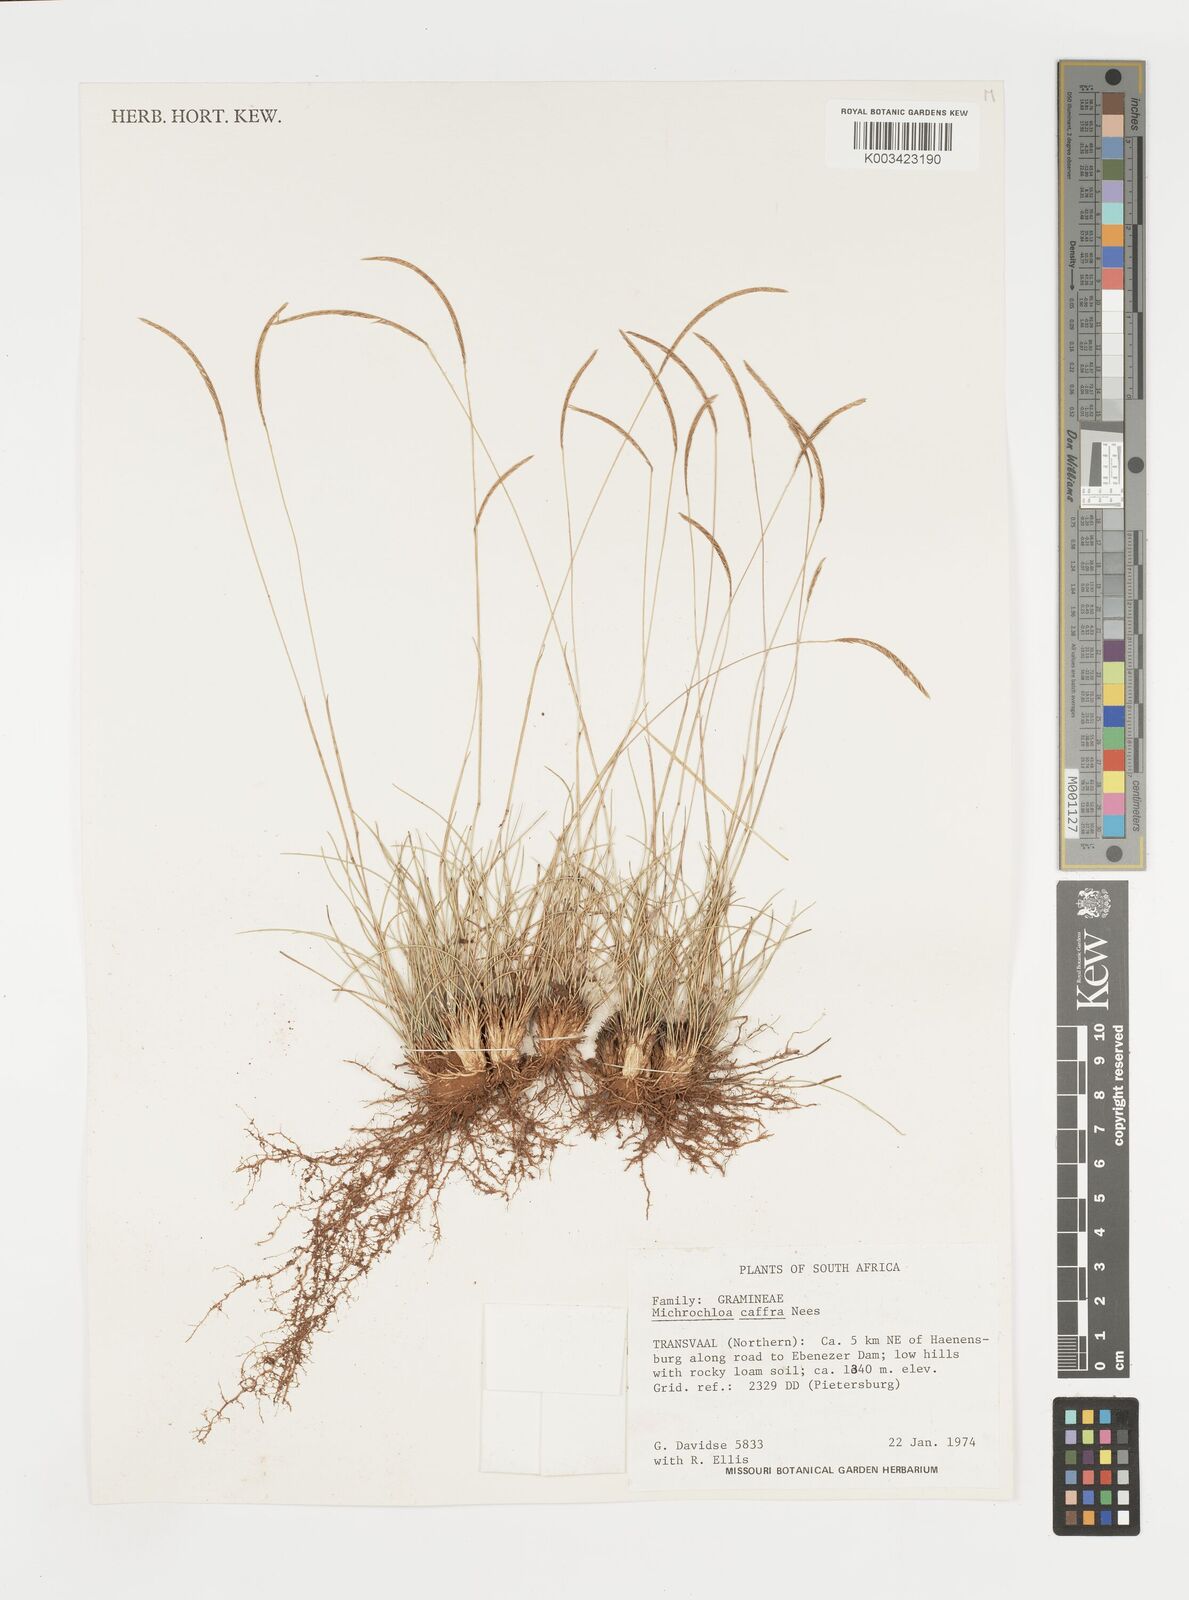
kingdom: Plantae
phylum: Tracheophyta
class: Liliopsida
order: Poales
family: Poaceae
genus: Microchloa
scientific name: Microchloa caffra
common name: Pincushion grass
